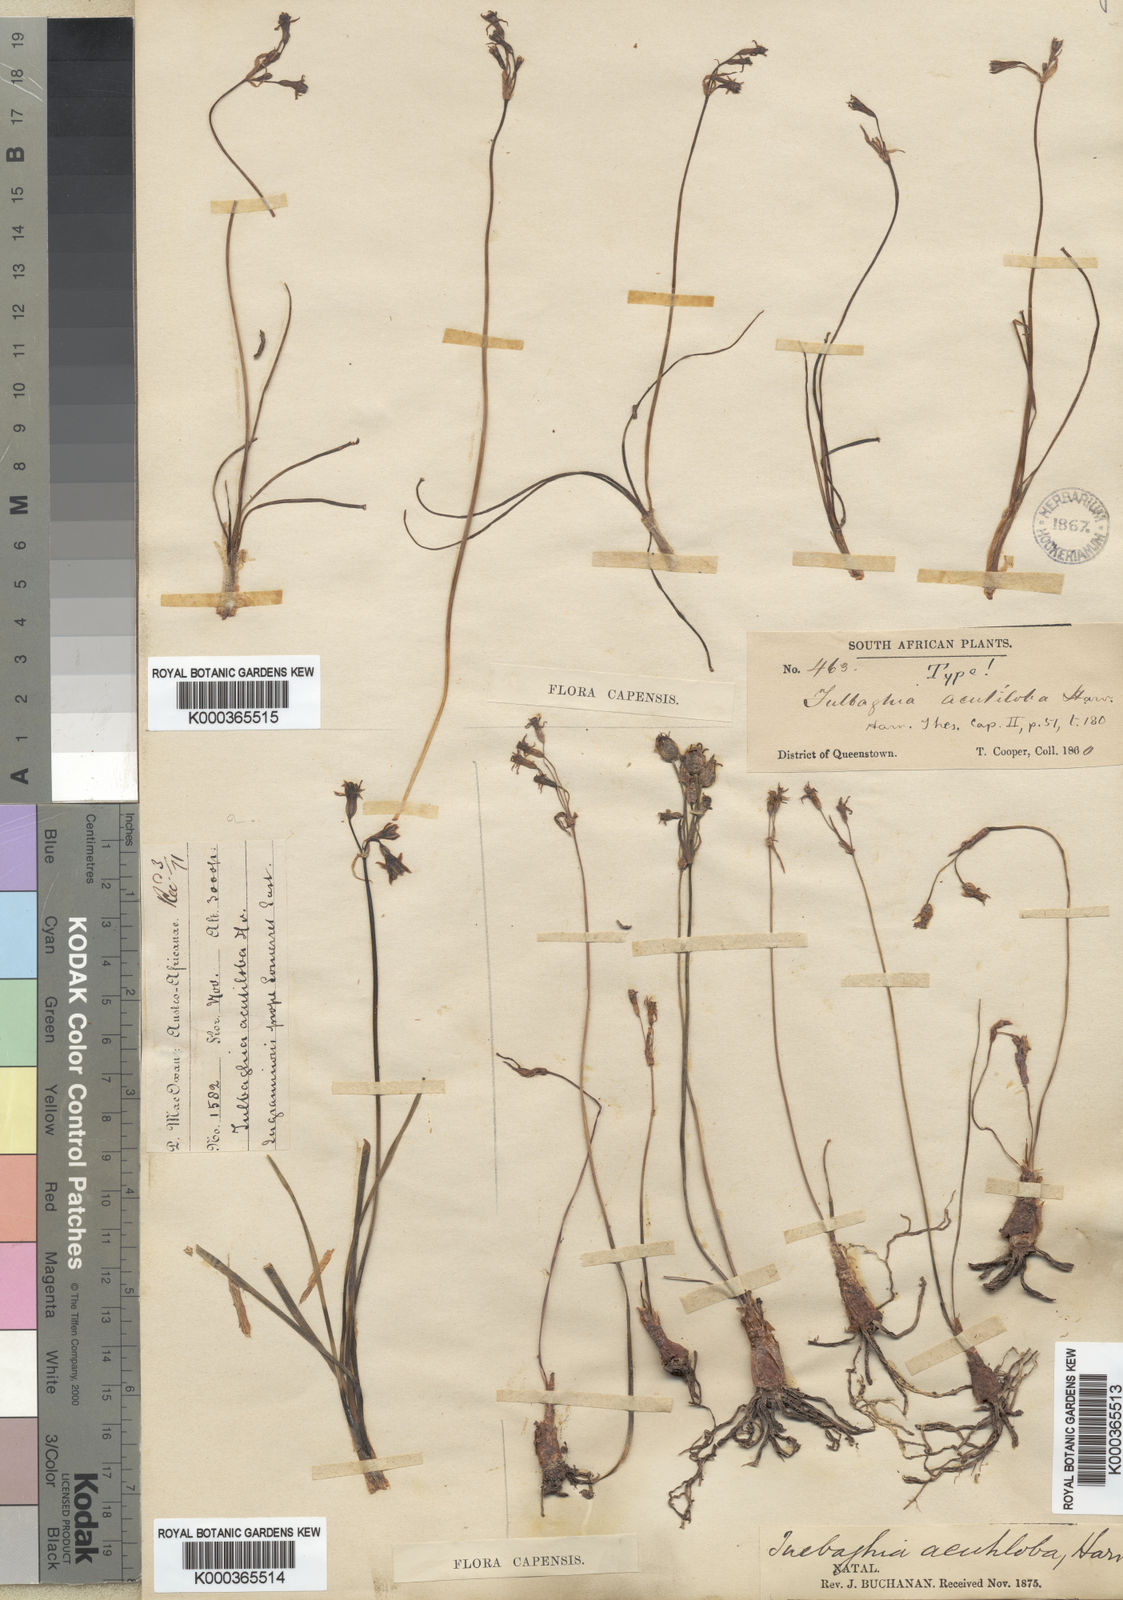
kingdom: Plantae
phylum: Tracheophyta
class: Liliopsida
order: Asparagales
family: Amaryllidaceae
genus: Tulbaghia
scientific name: Tulbaghia acutiloba
